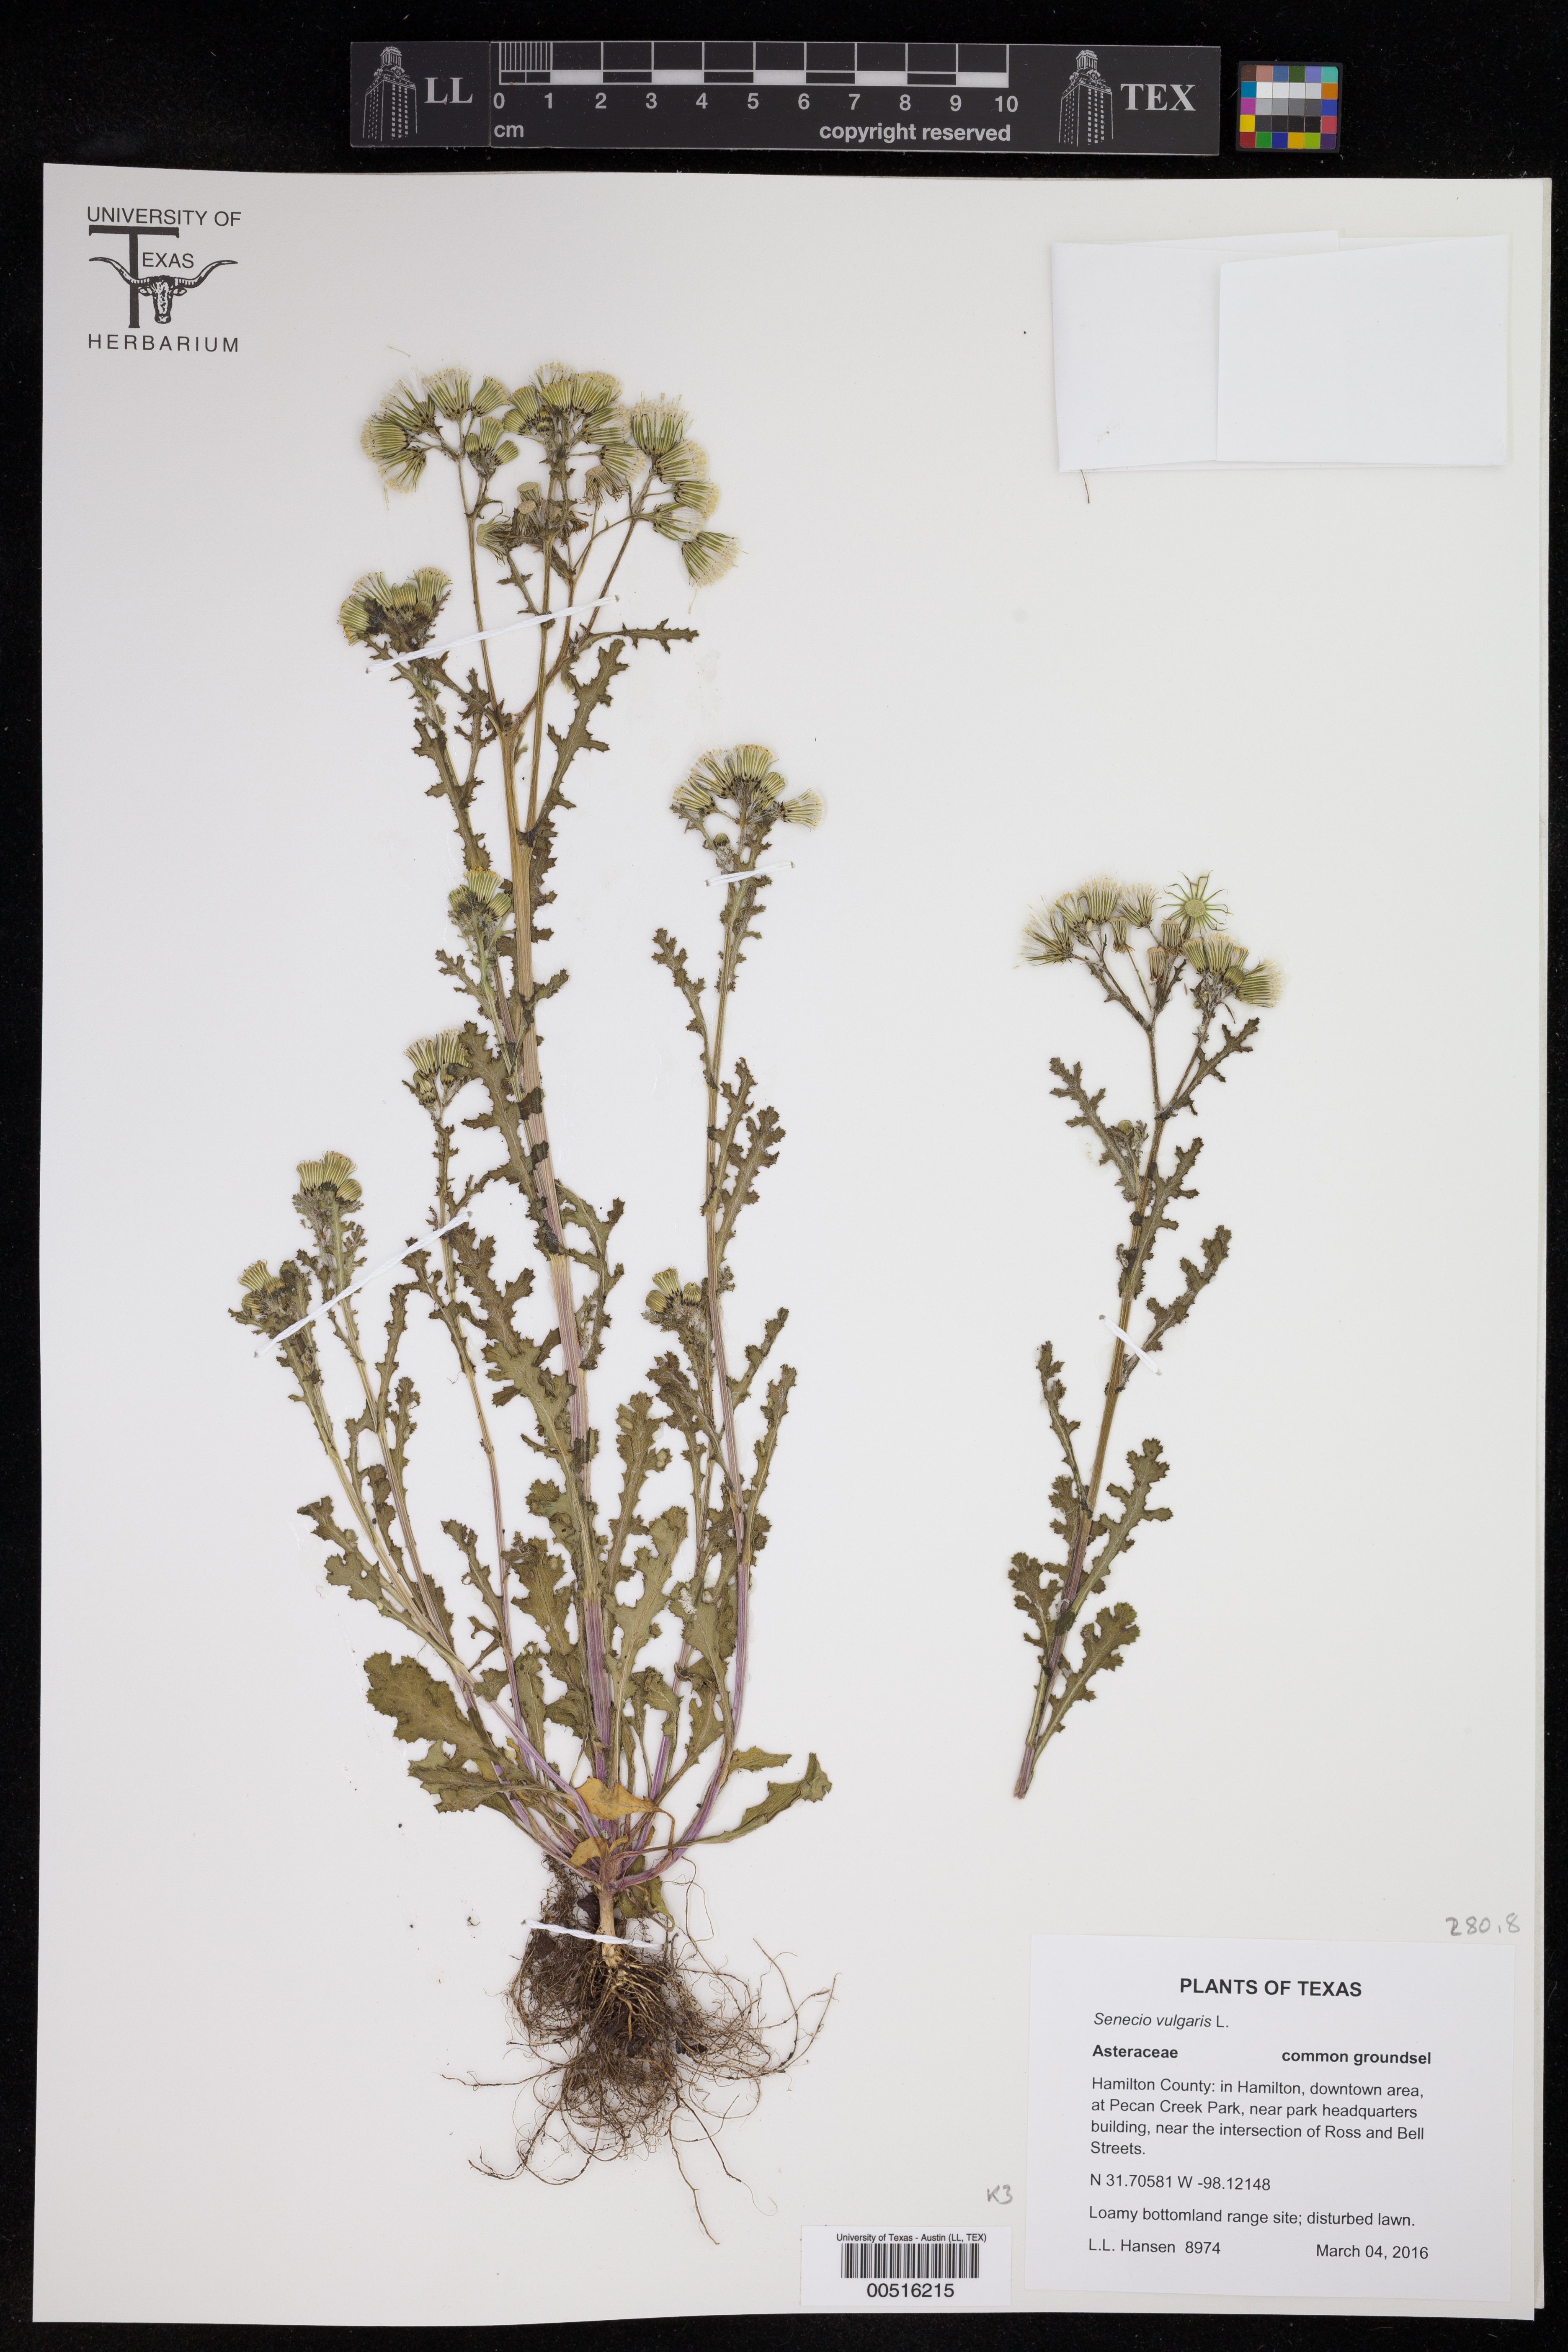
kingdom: Plantae
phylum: Tracheophyta
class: Magnoliopsida
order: Asterales
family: Asteraceae
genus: Senecio
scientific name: Senecio vulgaris
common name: Old-man-in-the-spring
